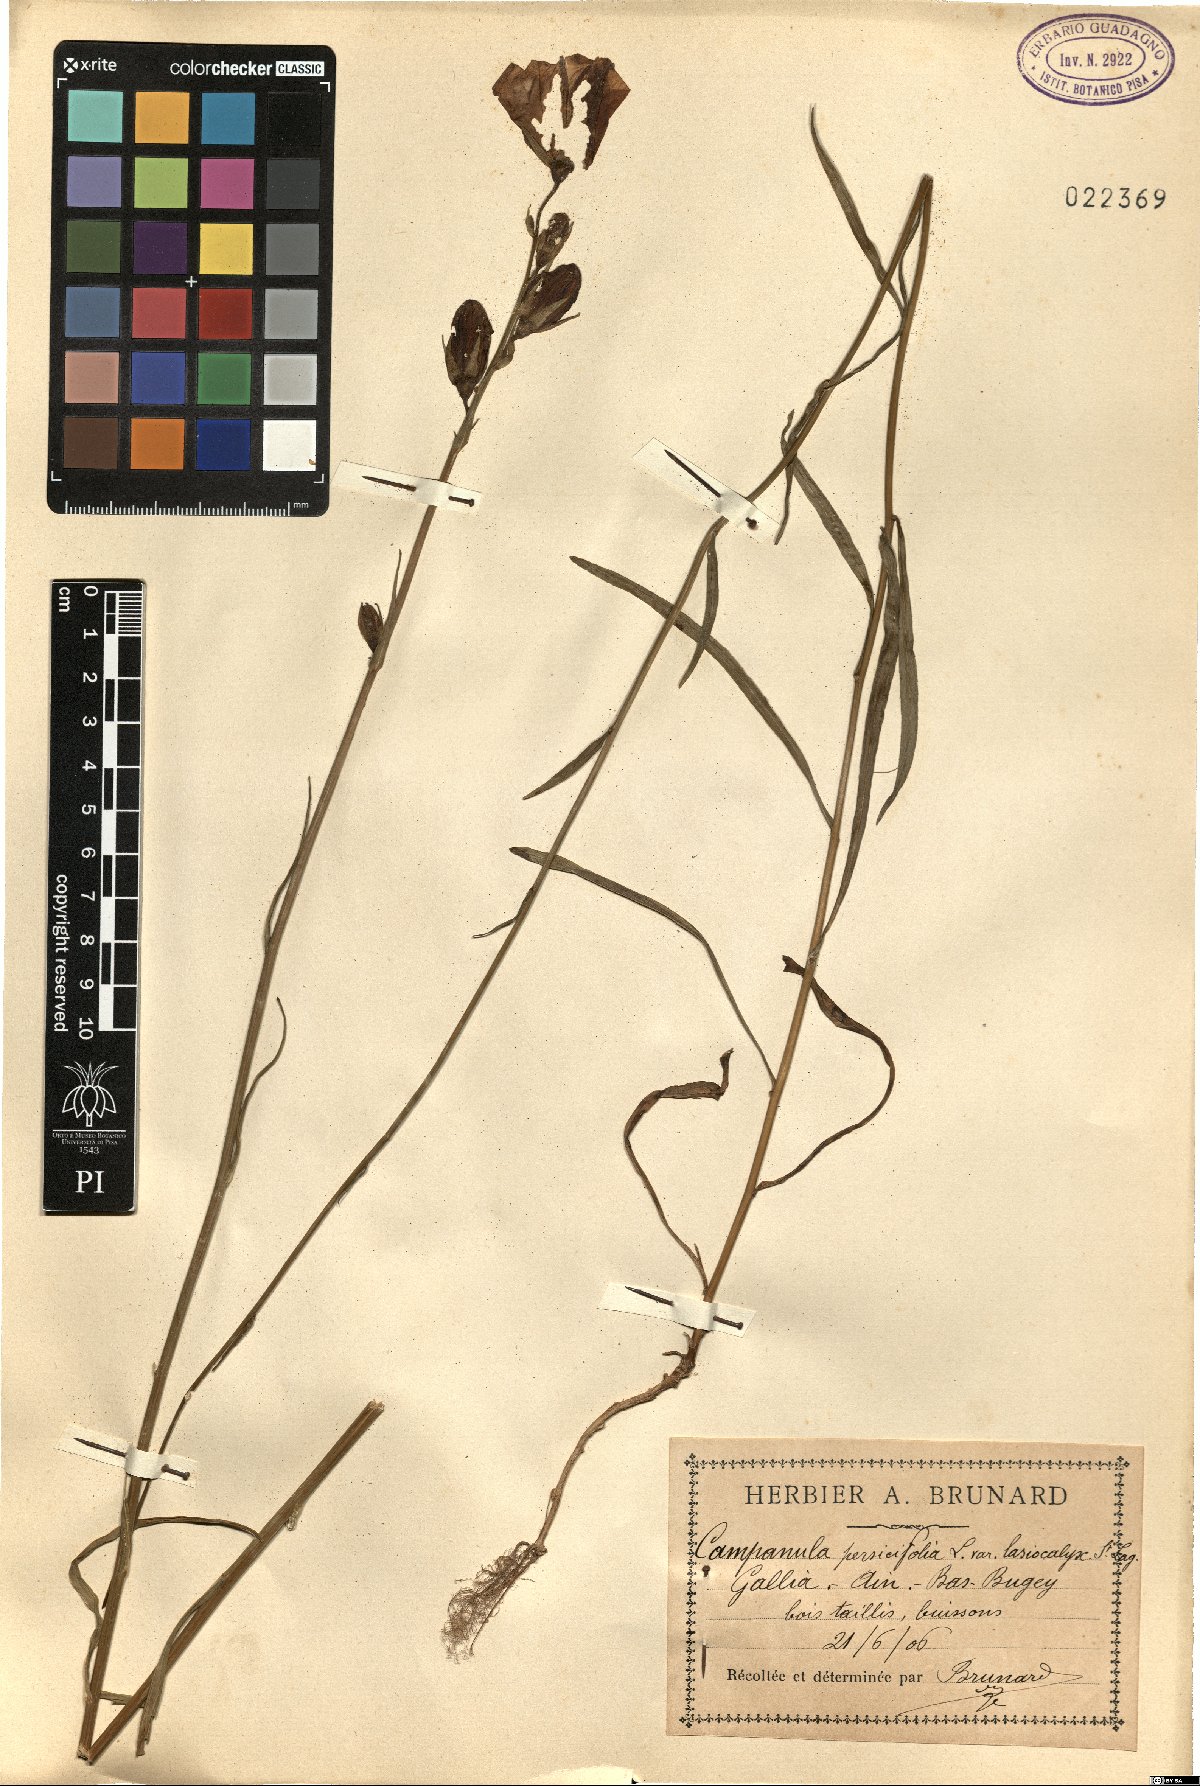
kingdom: Plantae
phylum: Tracheophyta
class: Magnoliopsida
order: Asterales
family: Campanulaceae
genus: Campanula
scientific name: Campanula persicifolia
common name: Peach-leaved bellflower
